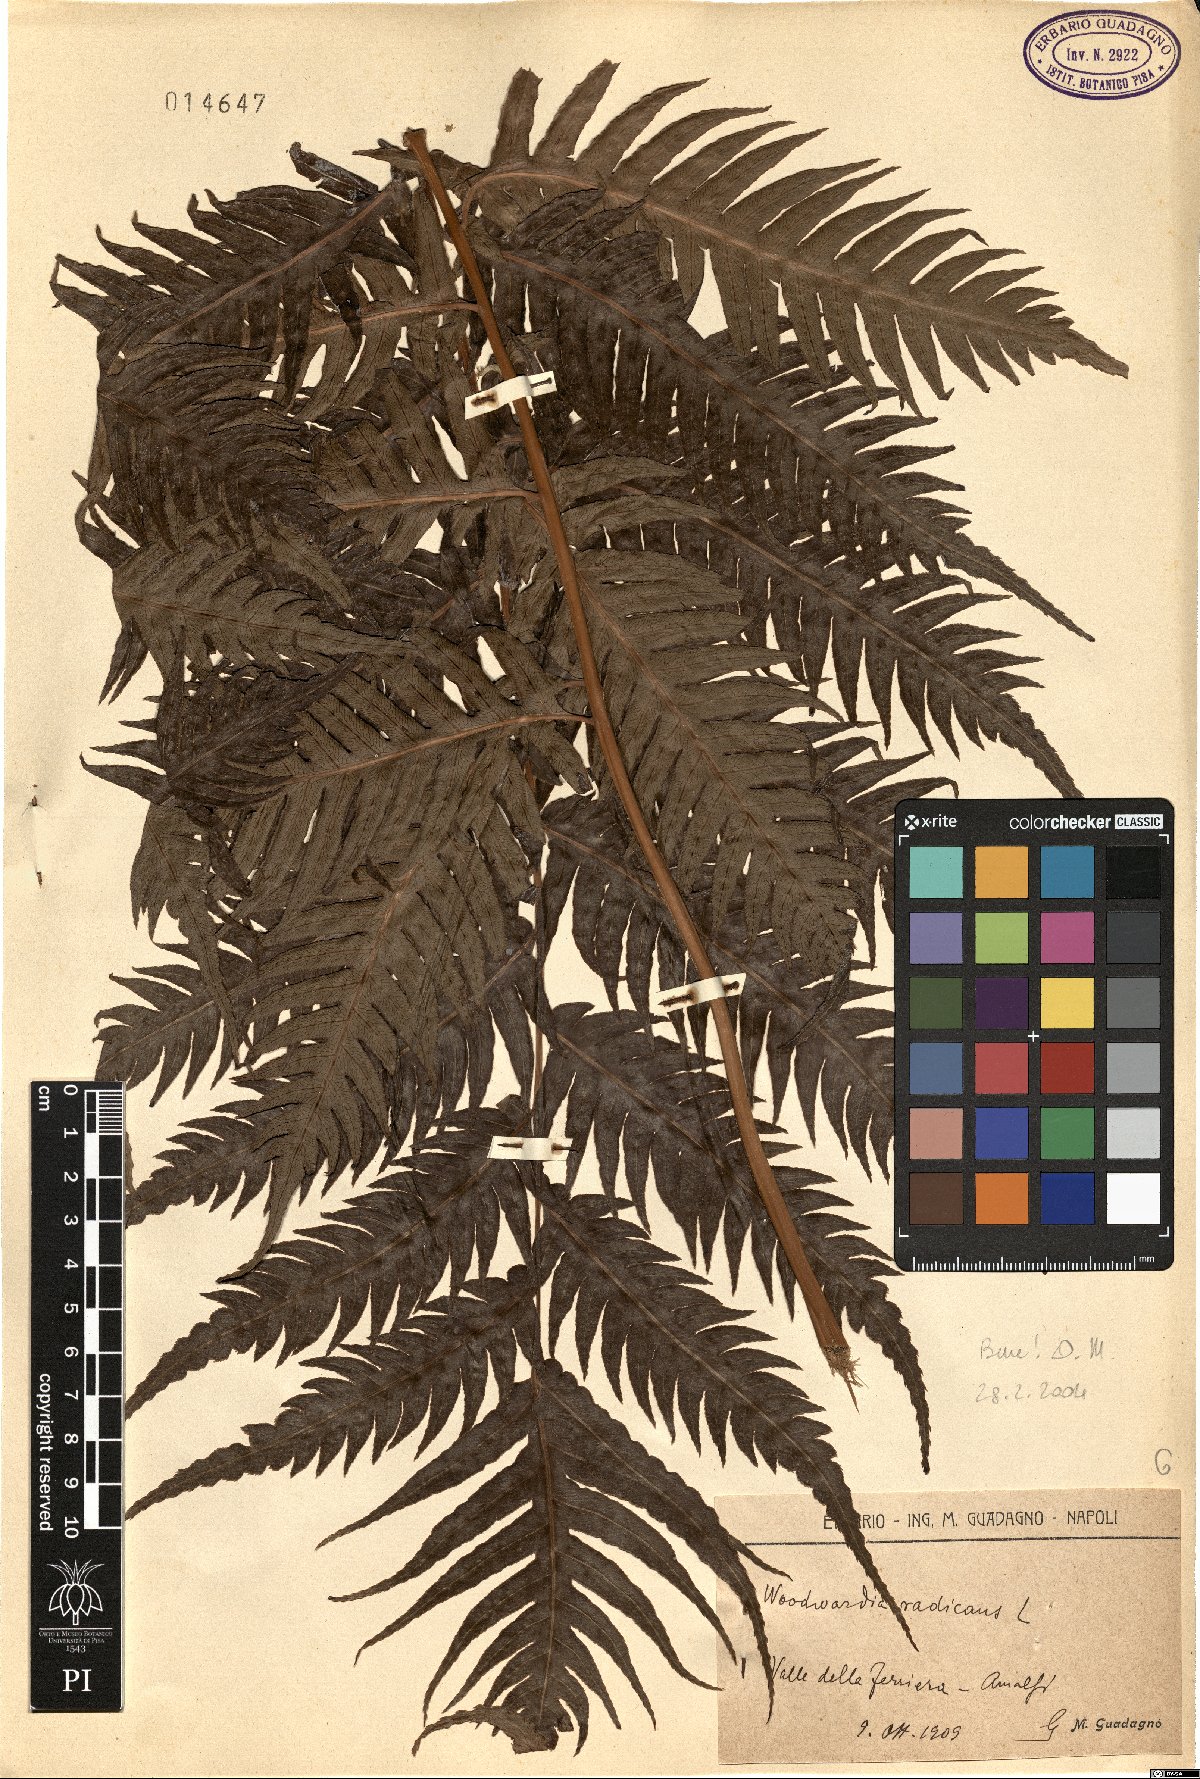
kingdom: Plantae
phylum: Tracheophyta
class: Polypodiopsida
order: Polypodiales
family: Blechnaceae
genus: Woodwardia
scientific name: Woodwardia radicans
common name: Rooting chainfern
